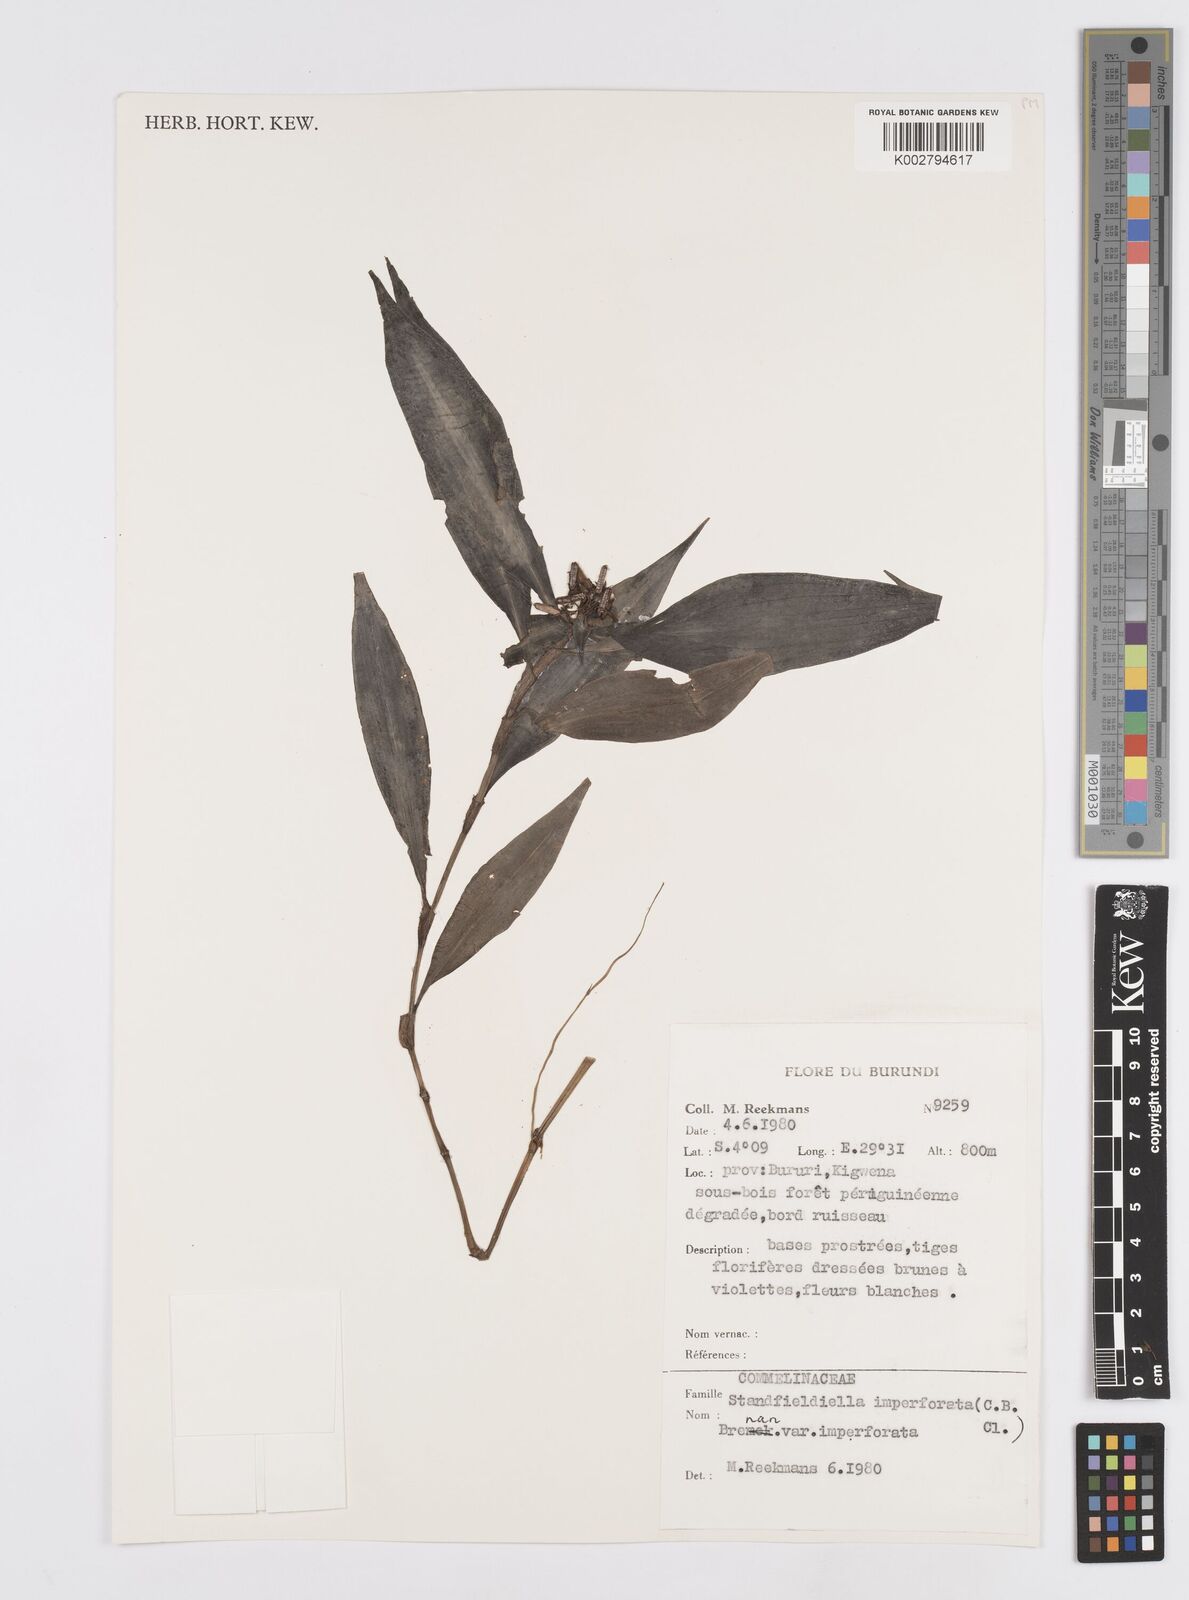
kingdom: Plantae
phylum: Tracheophyta
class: Liliopsida
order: Commelinales
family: Commelinaceae
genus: Stanfieldiella
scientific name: Stanfieldiella imperforata
